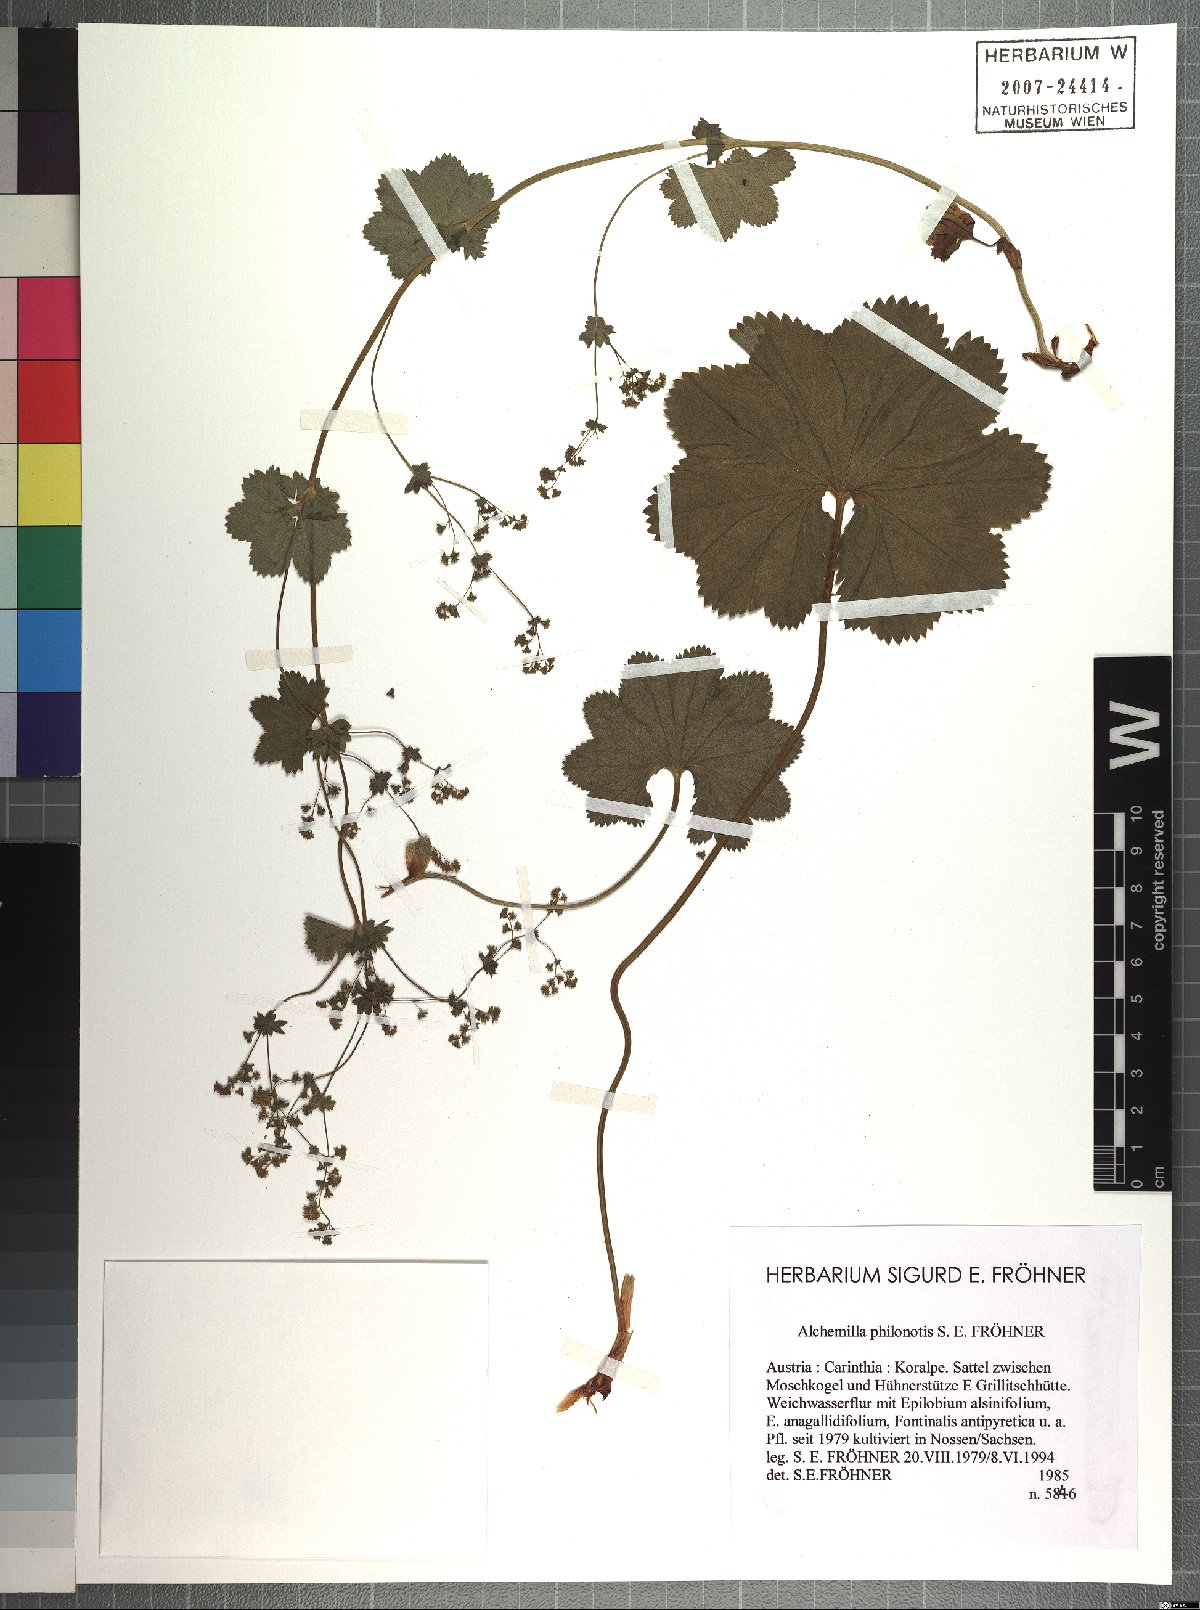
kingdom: Plantae
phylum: Tracheophyta
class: Magnoliopsida
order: Rosales
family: Rosaceae
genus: Alchemilla
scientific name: Alchemilla philonotis
